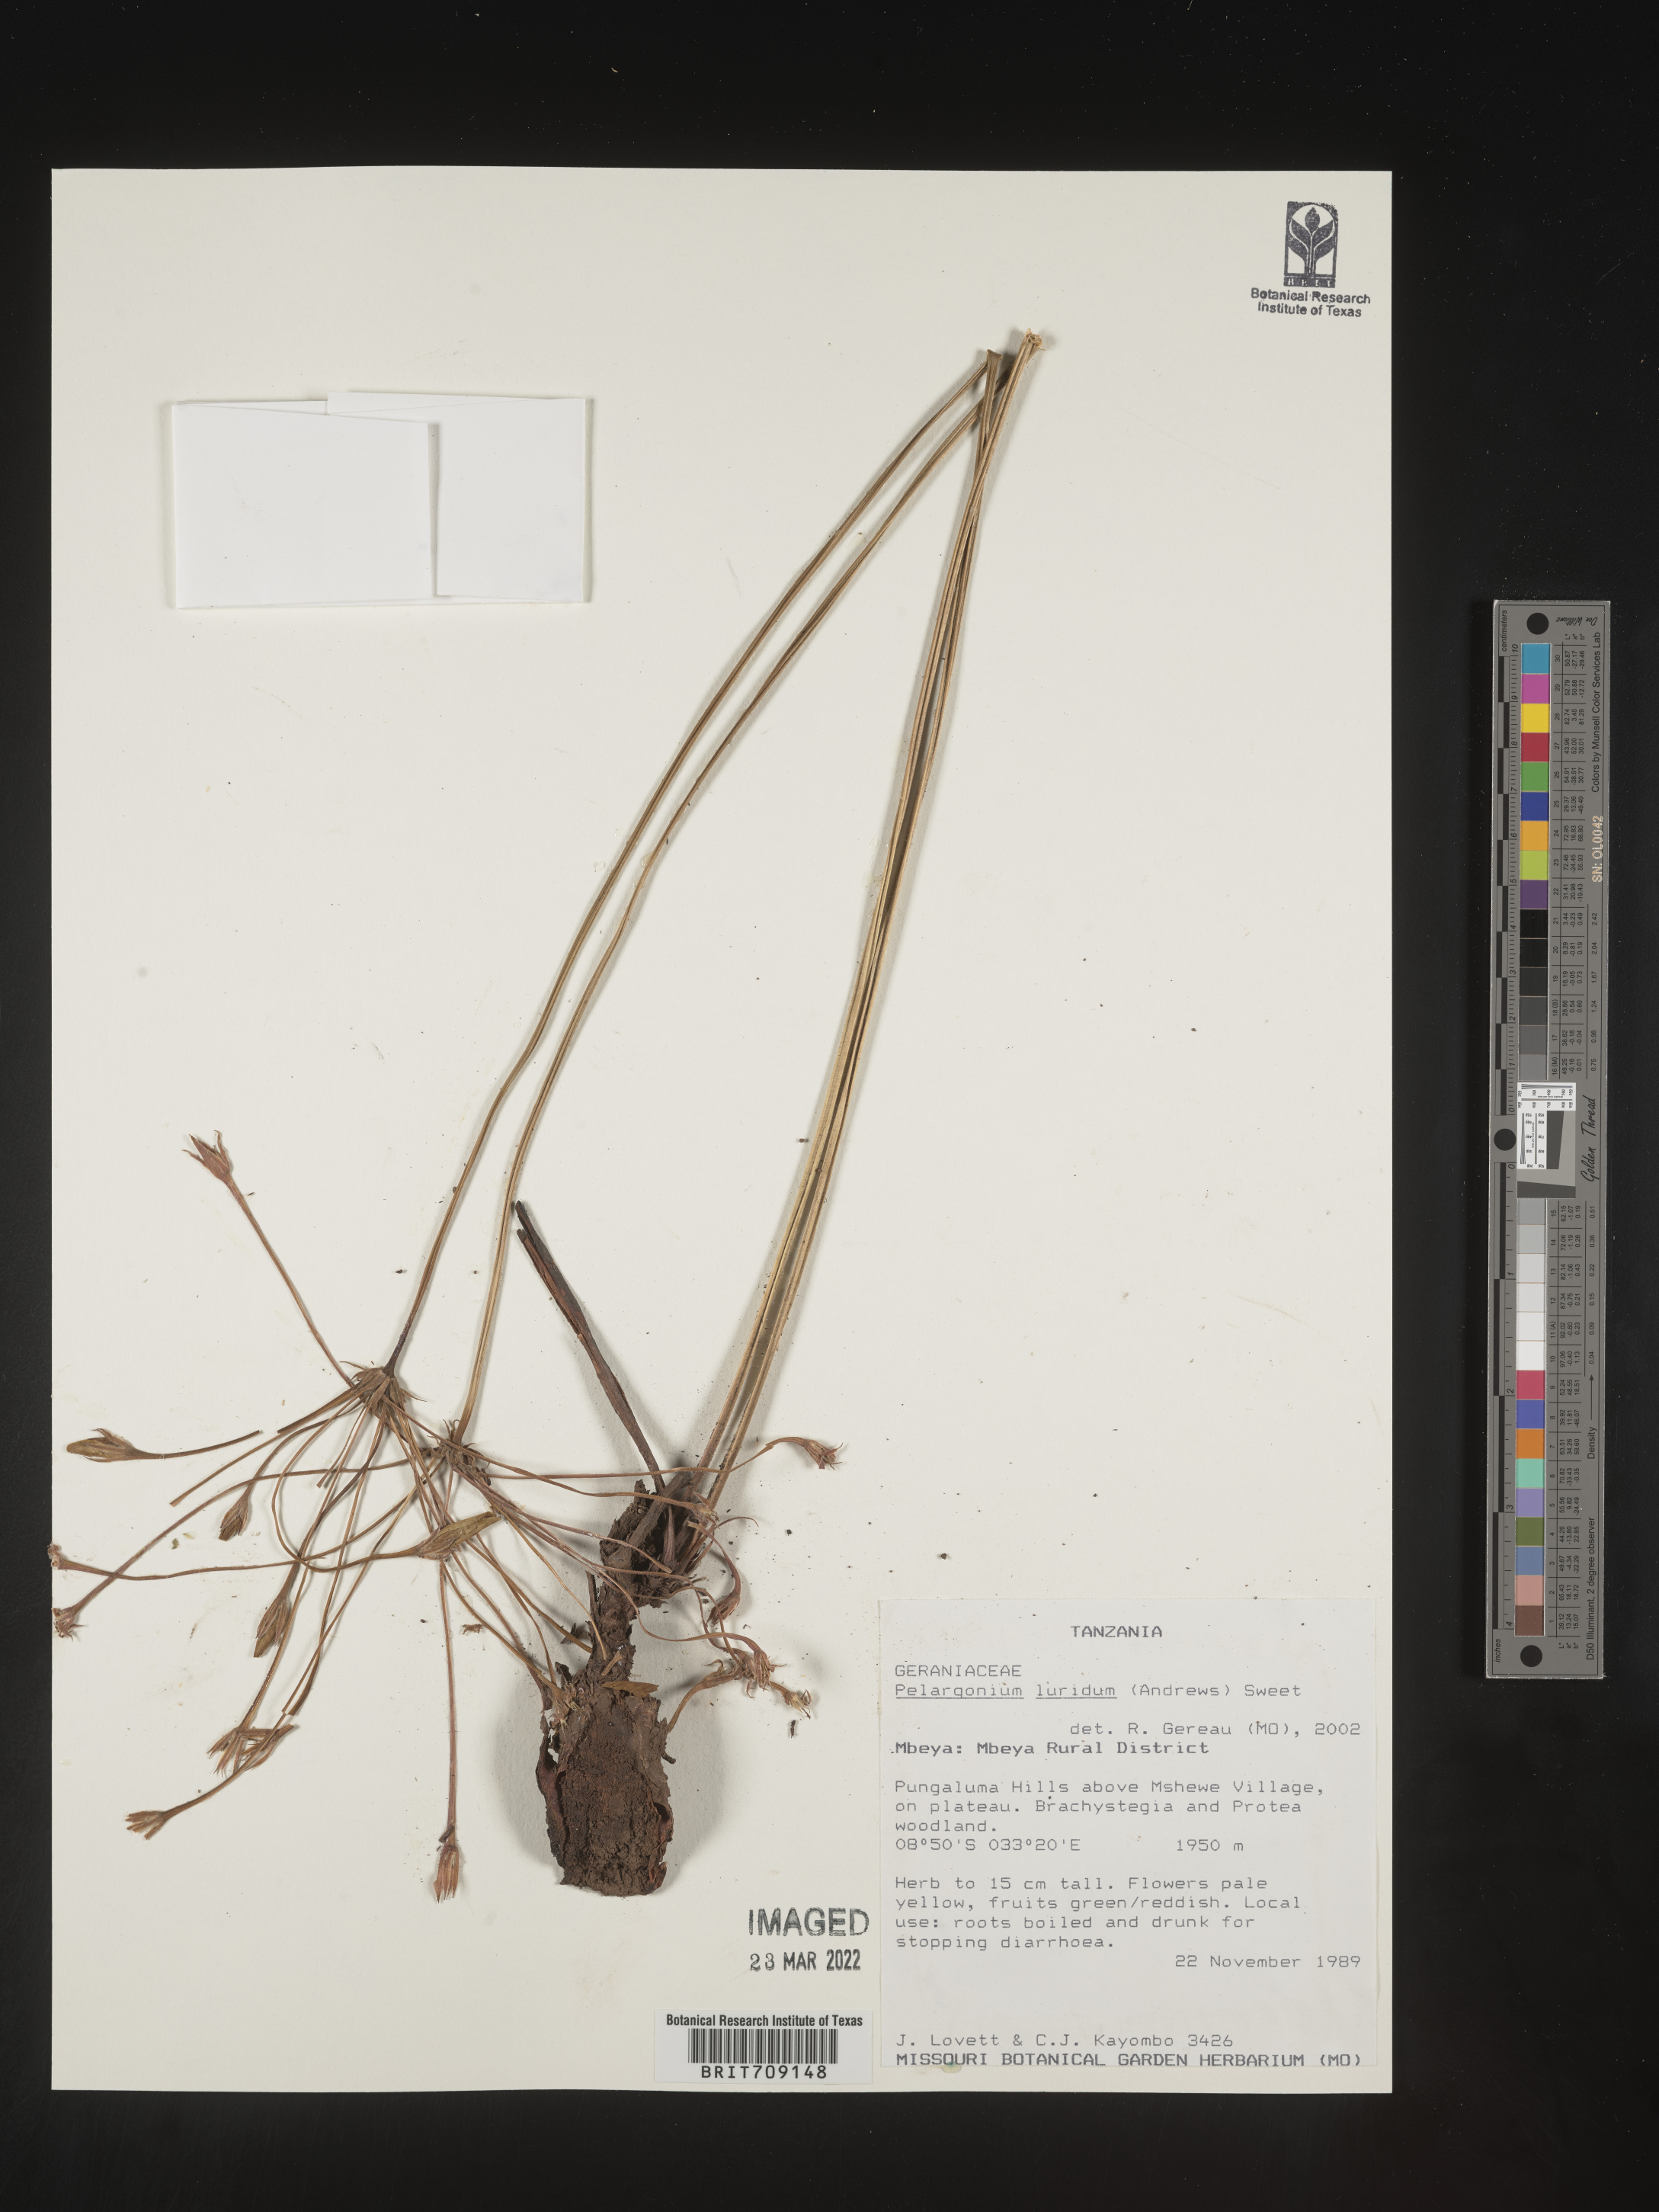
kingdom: Plantae
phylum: Tracheophyta
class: Magnoliopsida
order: Geraniales
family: Geraniaceae
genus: Pelargonium
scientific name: Pelargonium
